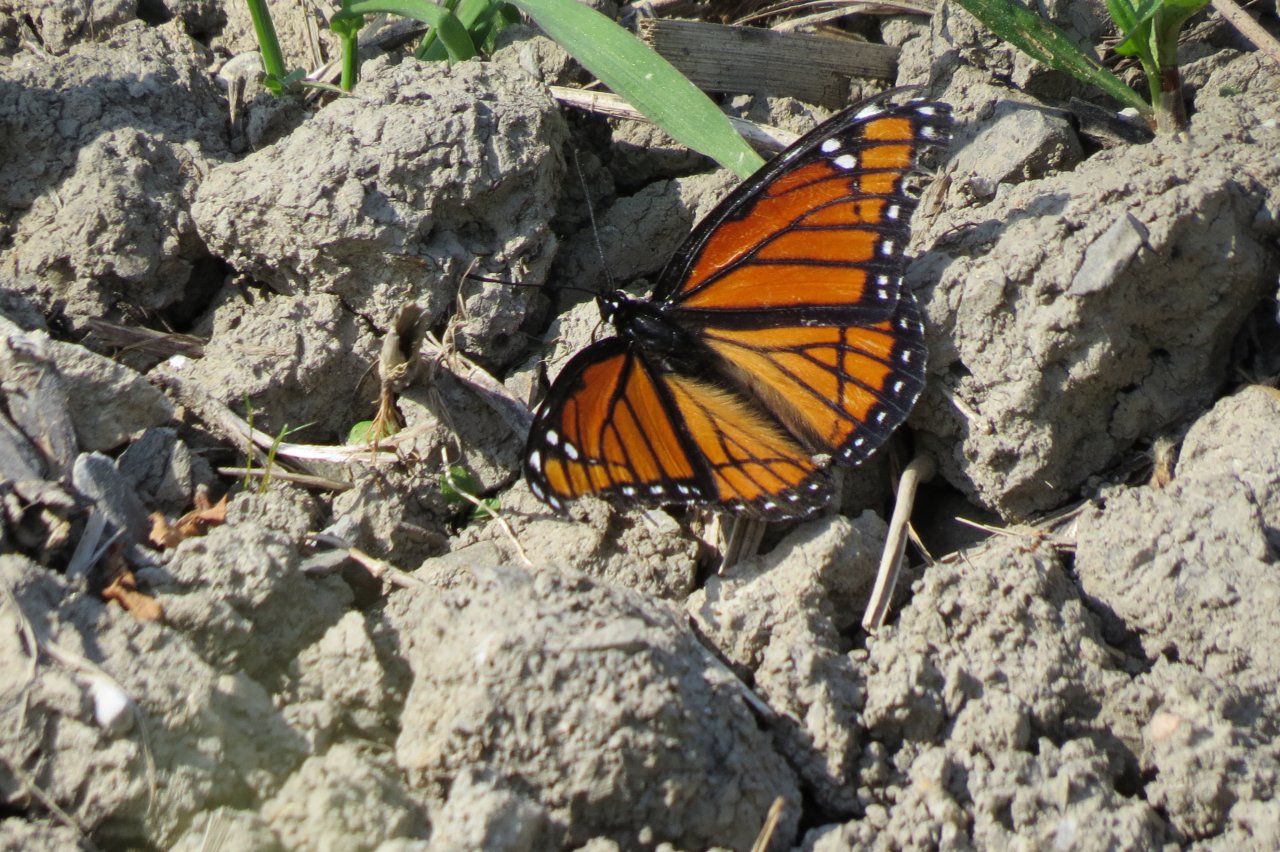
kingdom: Animalia
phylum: Arthropoda
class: Insecta
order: Lepidoptera
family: Nymphalidae
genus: Limenitis
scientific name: Limenitis archippus
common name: Viceroy
